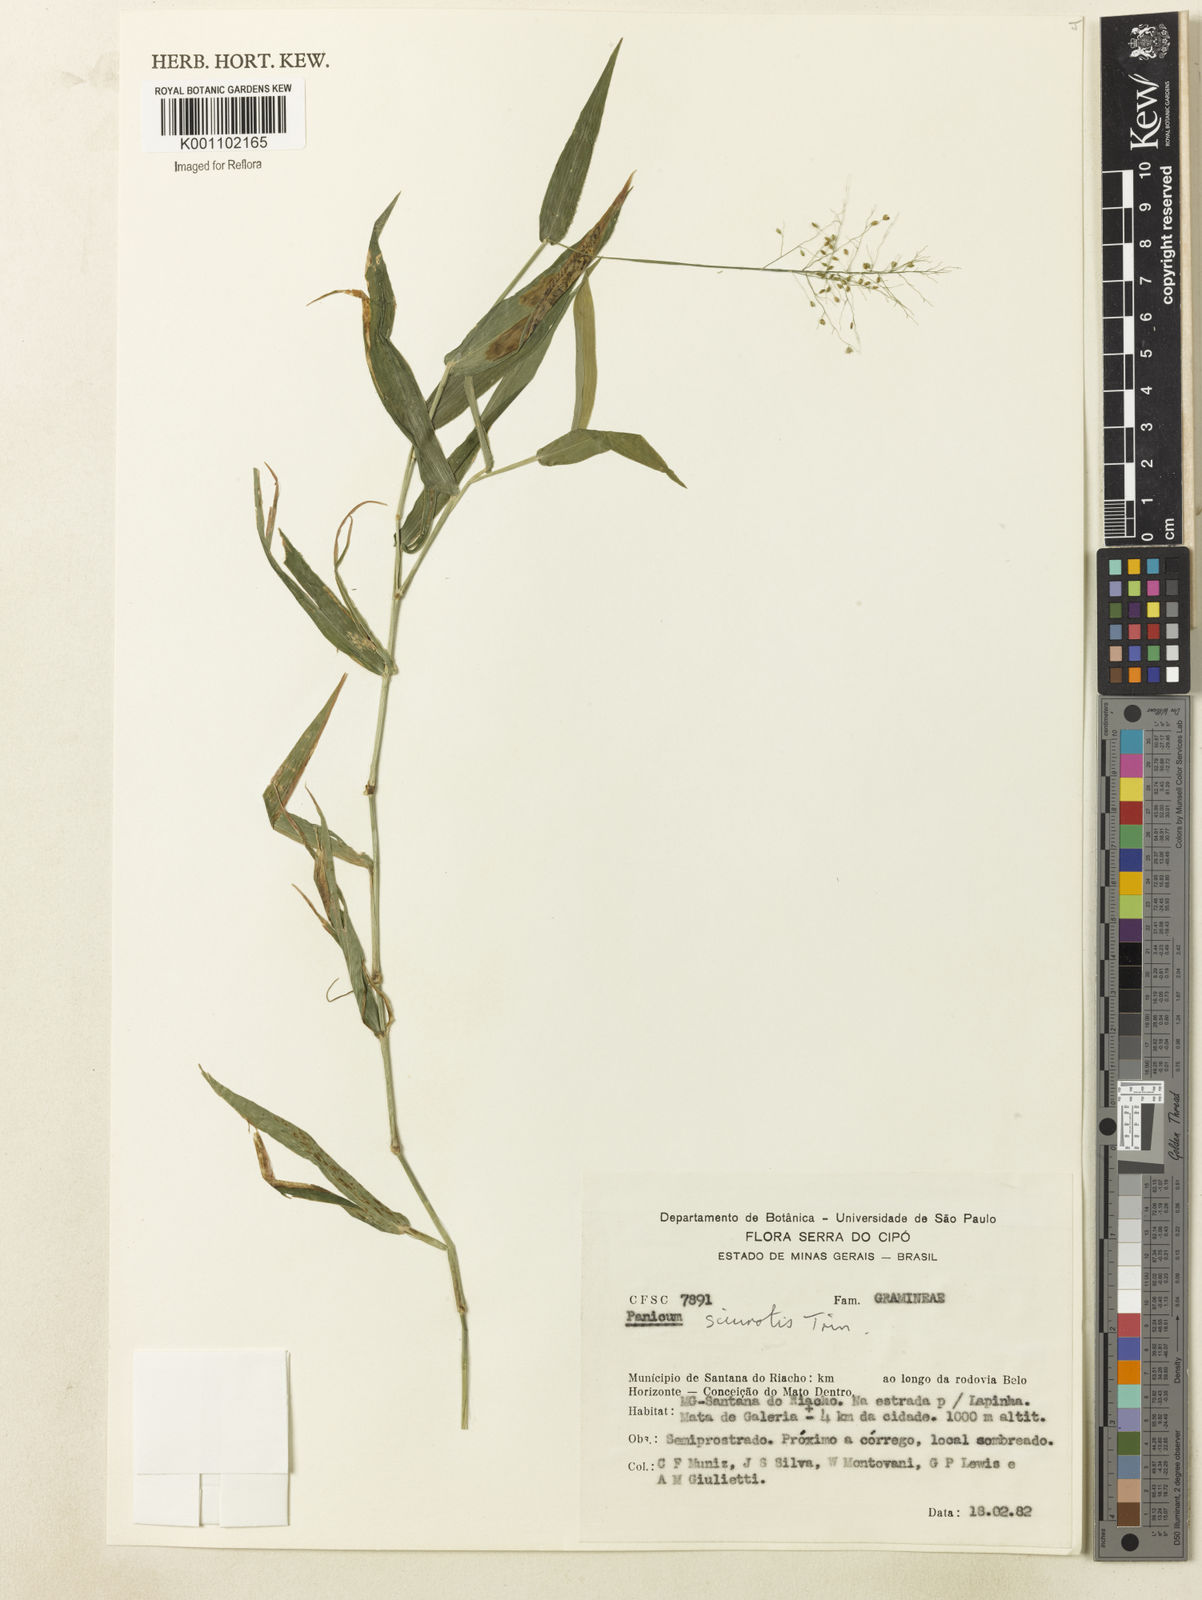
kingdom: Plantae
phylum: Tracheophyta
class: Liliopsida
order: Poales
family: Poaceae
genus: Dichanthelium
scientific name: Dichanthelium sciurotoides
